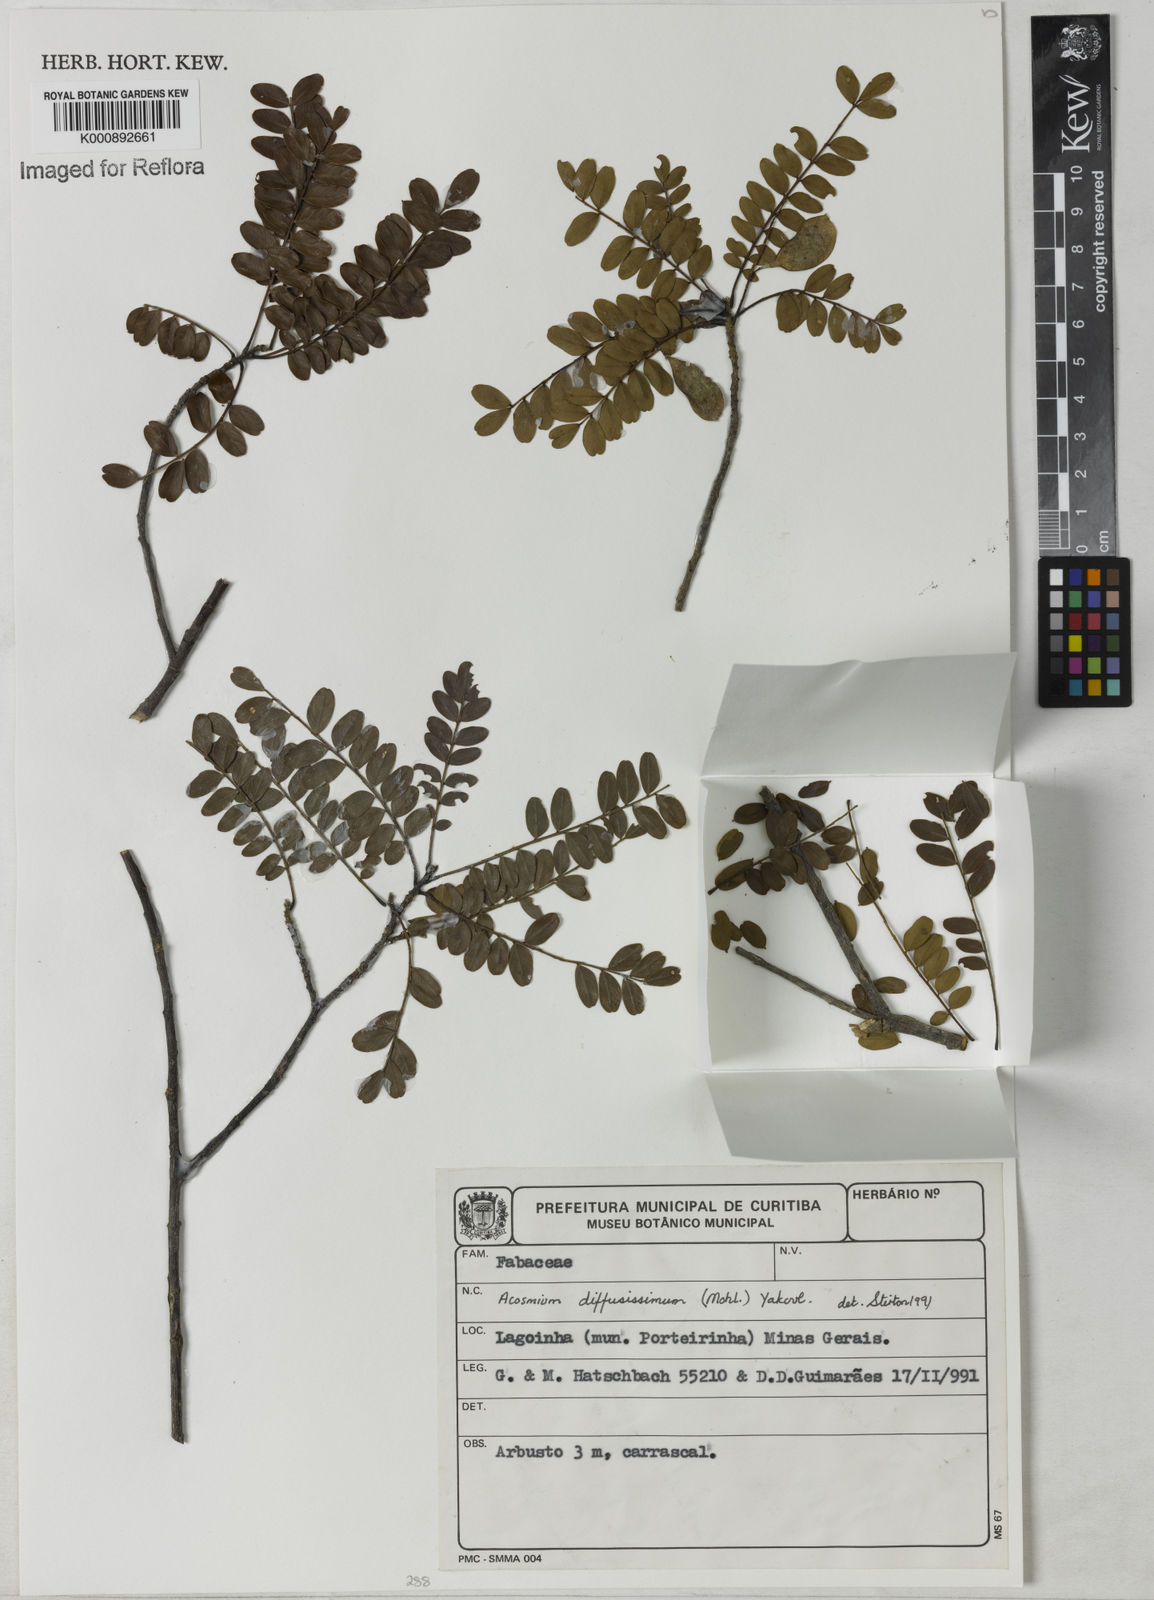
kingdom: Plantae
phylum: Tracheophyta
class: Magnoliopsida
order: Fabales
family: Fabaceae
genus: Acosmium
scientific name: Acosmium diffusissimum
